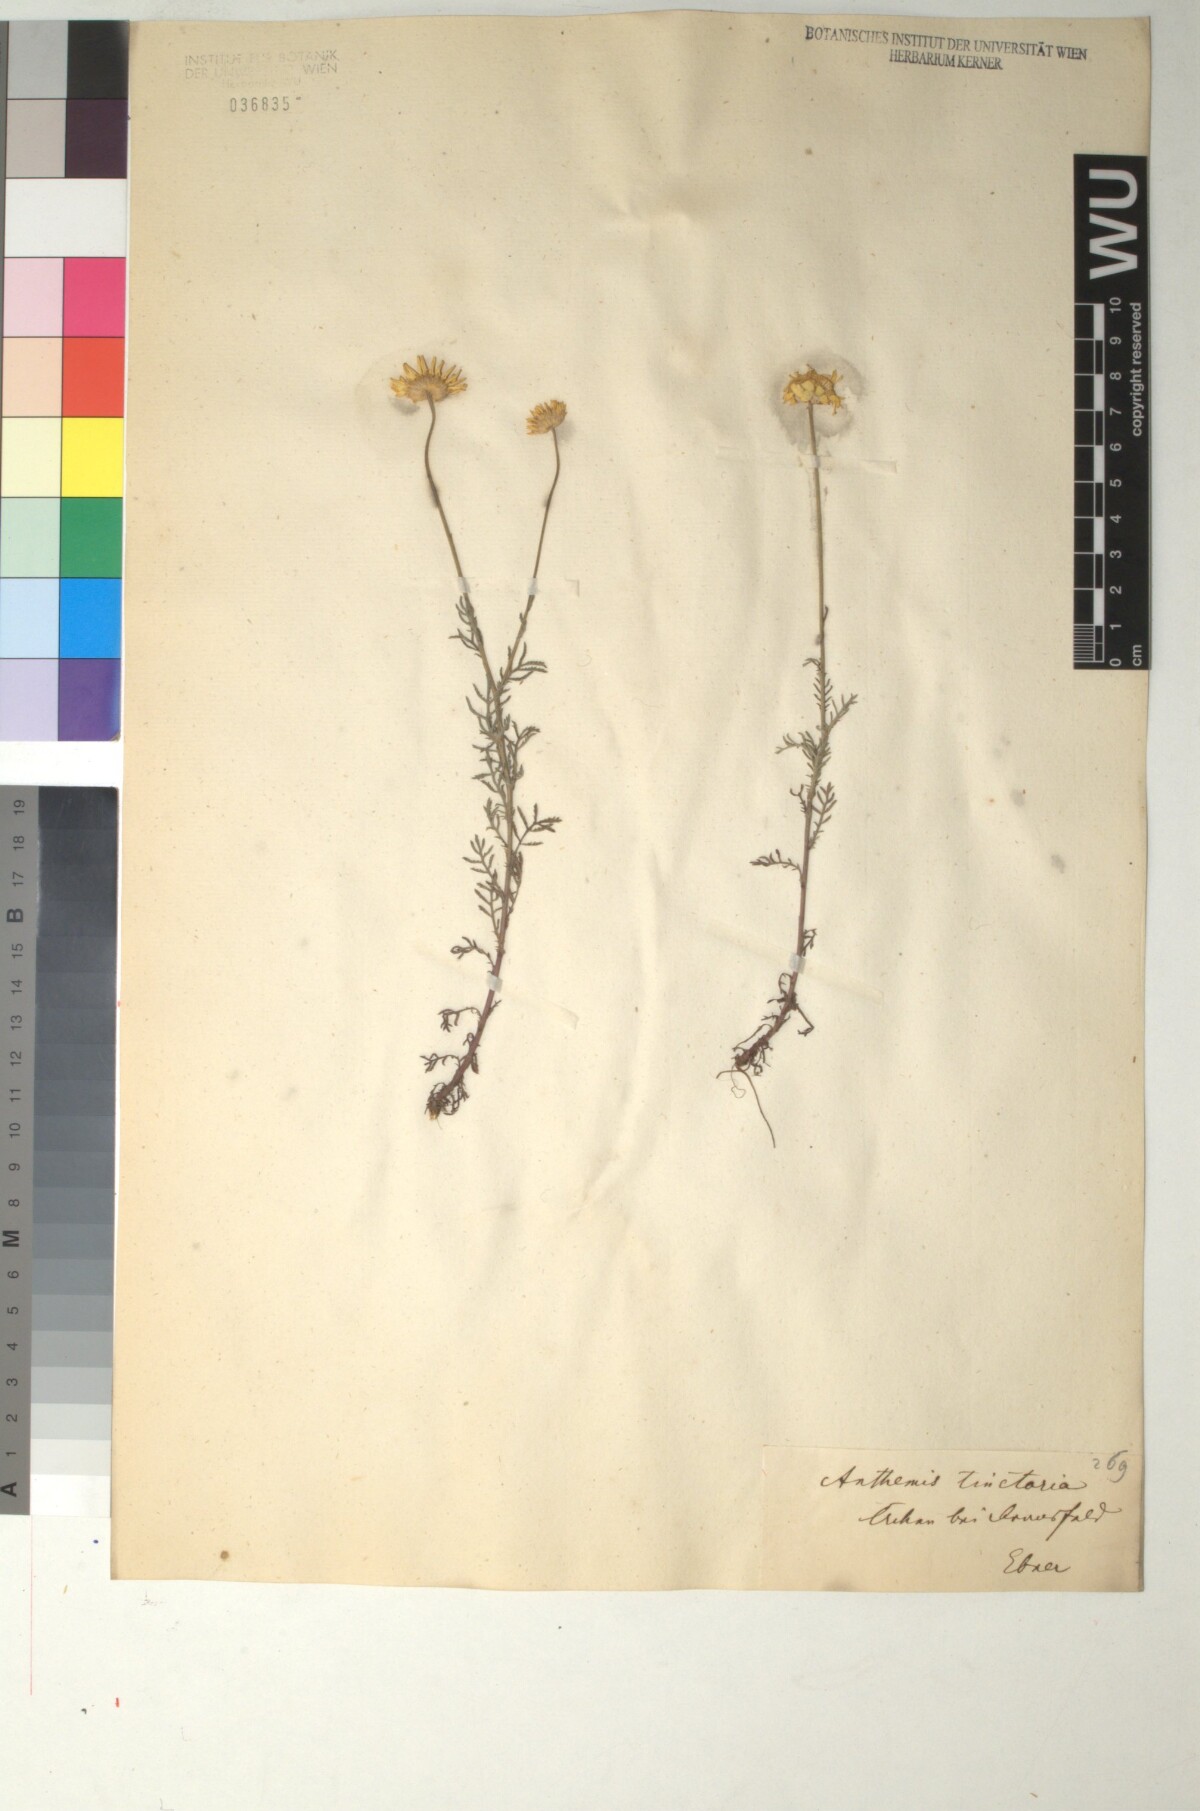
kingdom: Plantae
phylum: Tracheophyta
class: Magnoliopsida
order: Asterales
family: Asteraceae
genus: Cota
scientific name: Cota tinctoria
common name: Golden chamomile
